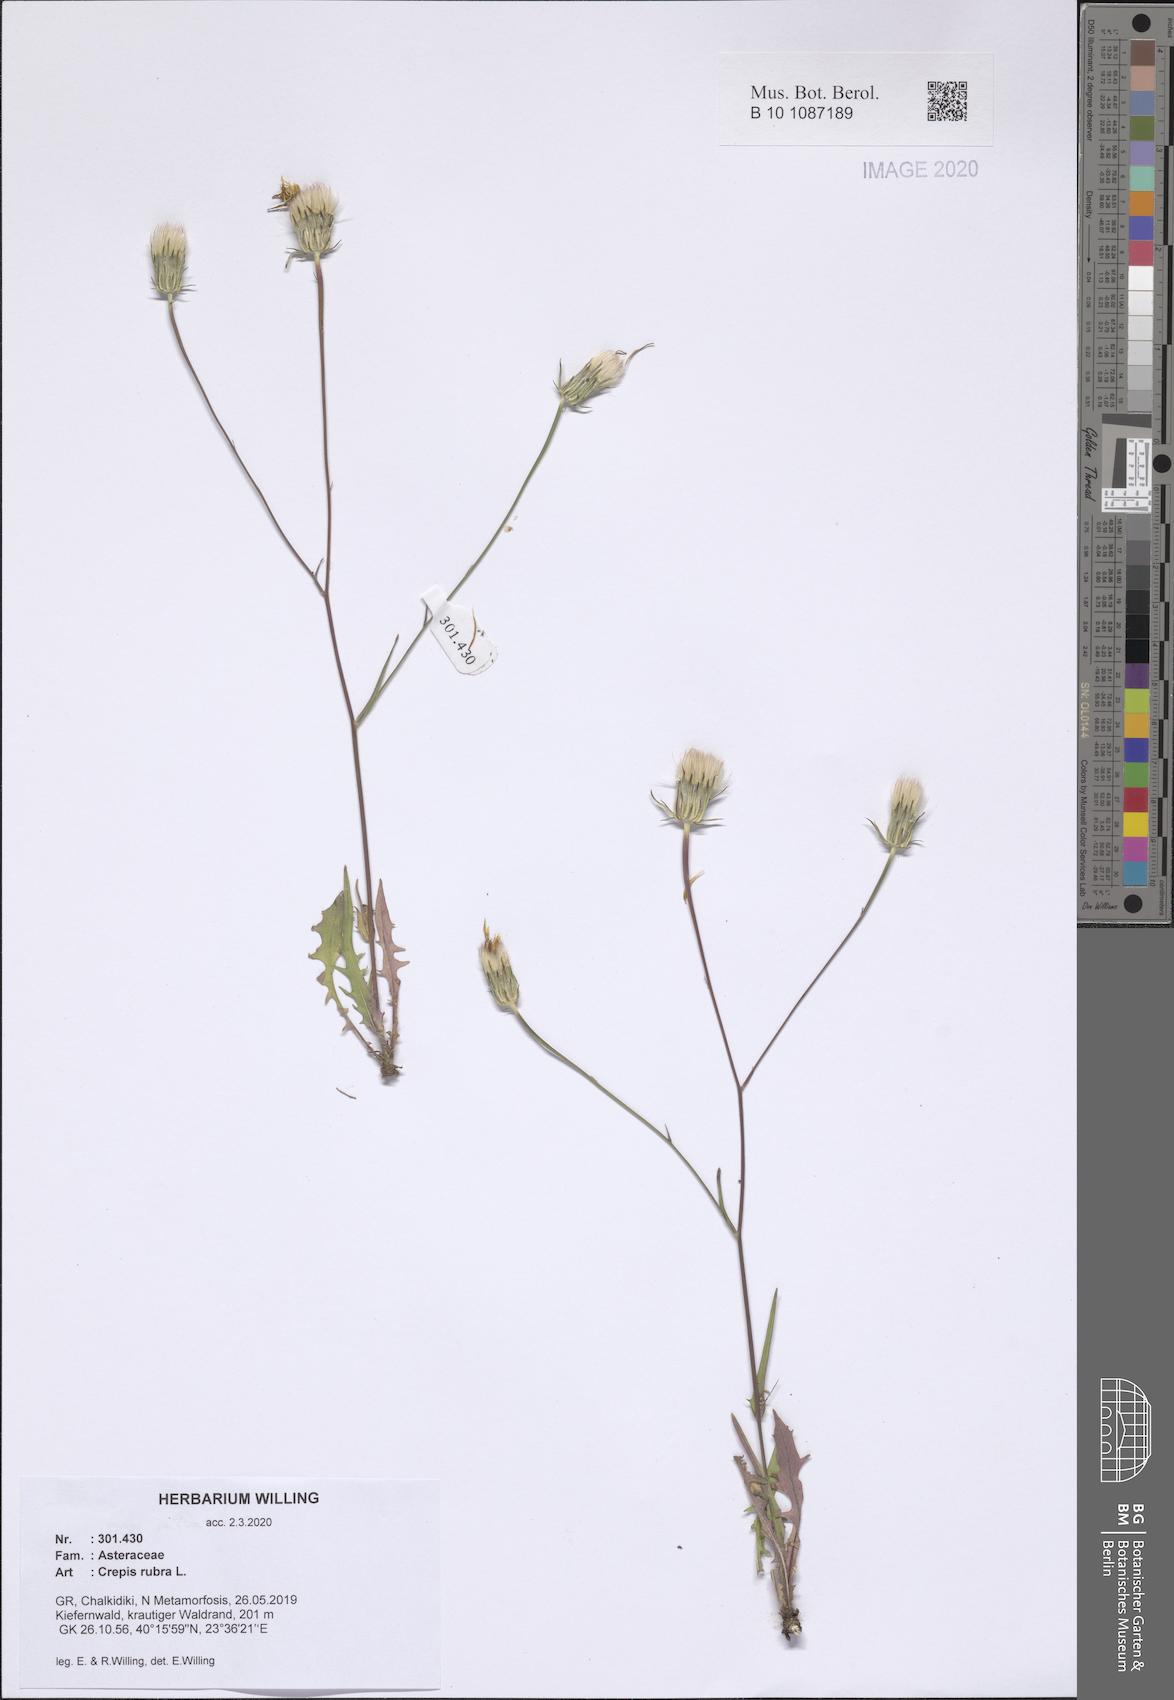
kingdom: Plantae
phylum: Tracheophyta
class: Magnoliopsida
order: Asterales
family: Asteraceae
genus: Crepis
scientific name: Crepis rubra
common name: Pink hawk's-beard
